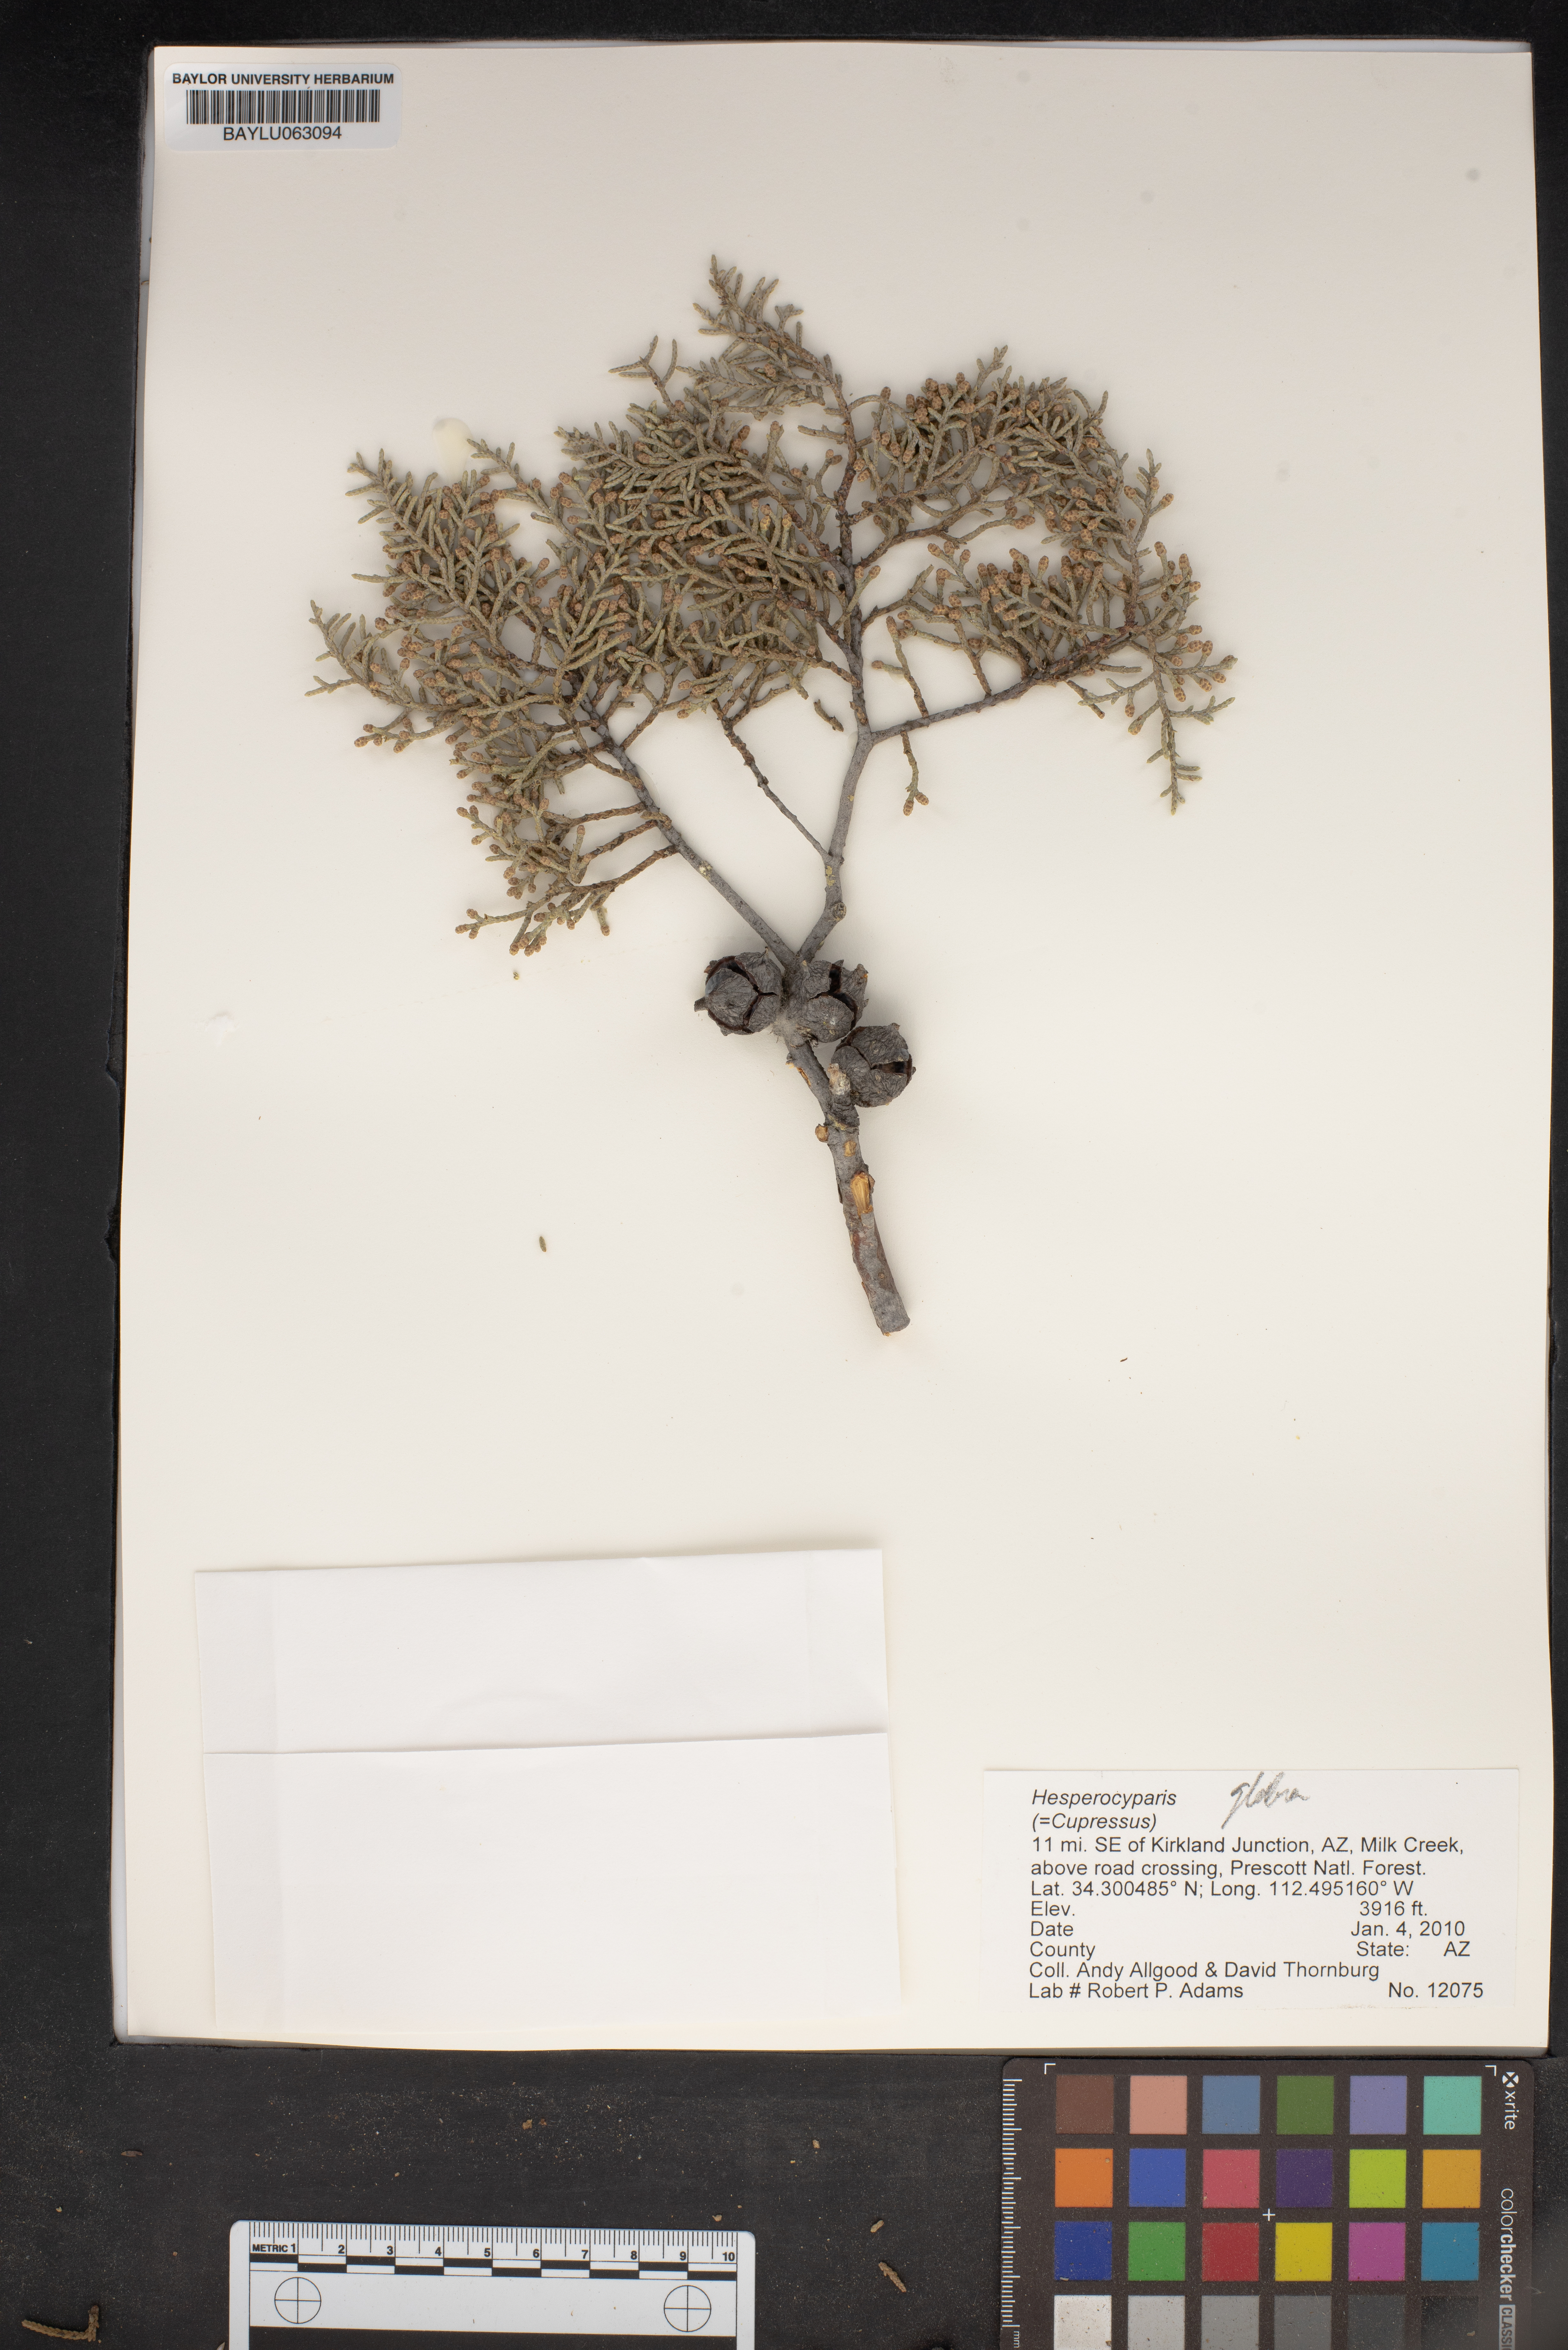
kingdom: Plantae
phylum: Tracheophyta
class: Pinopsida
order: Pinales
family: Cupressaceae
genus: Hesperocyparis
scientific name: Hesperocyparis
